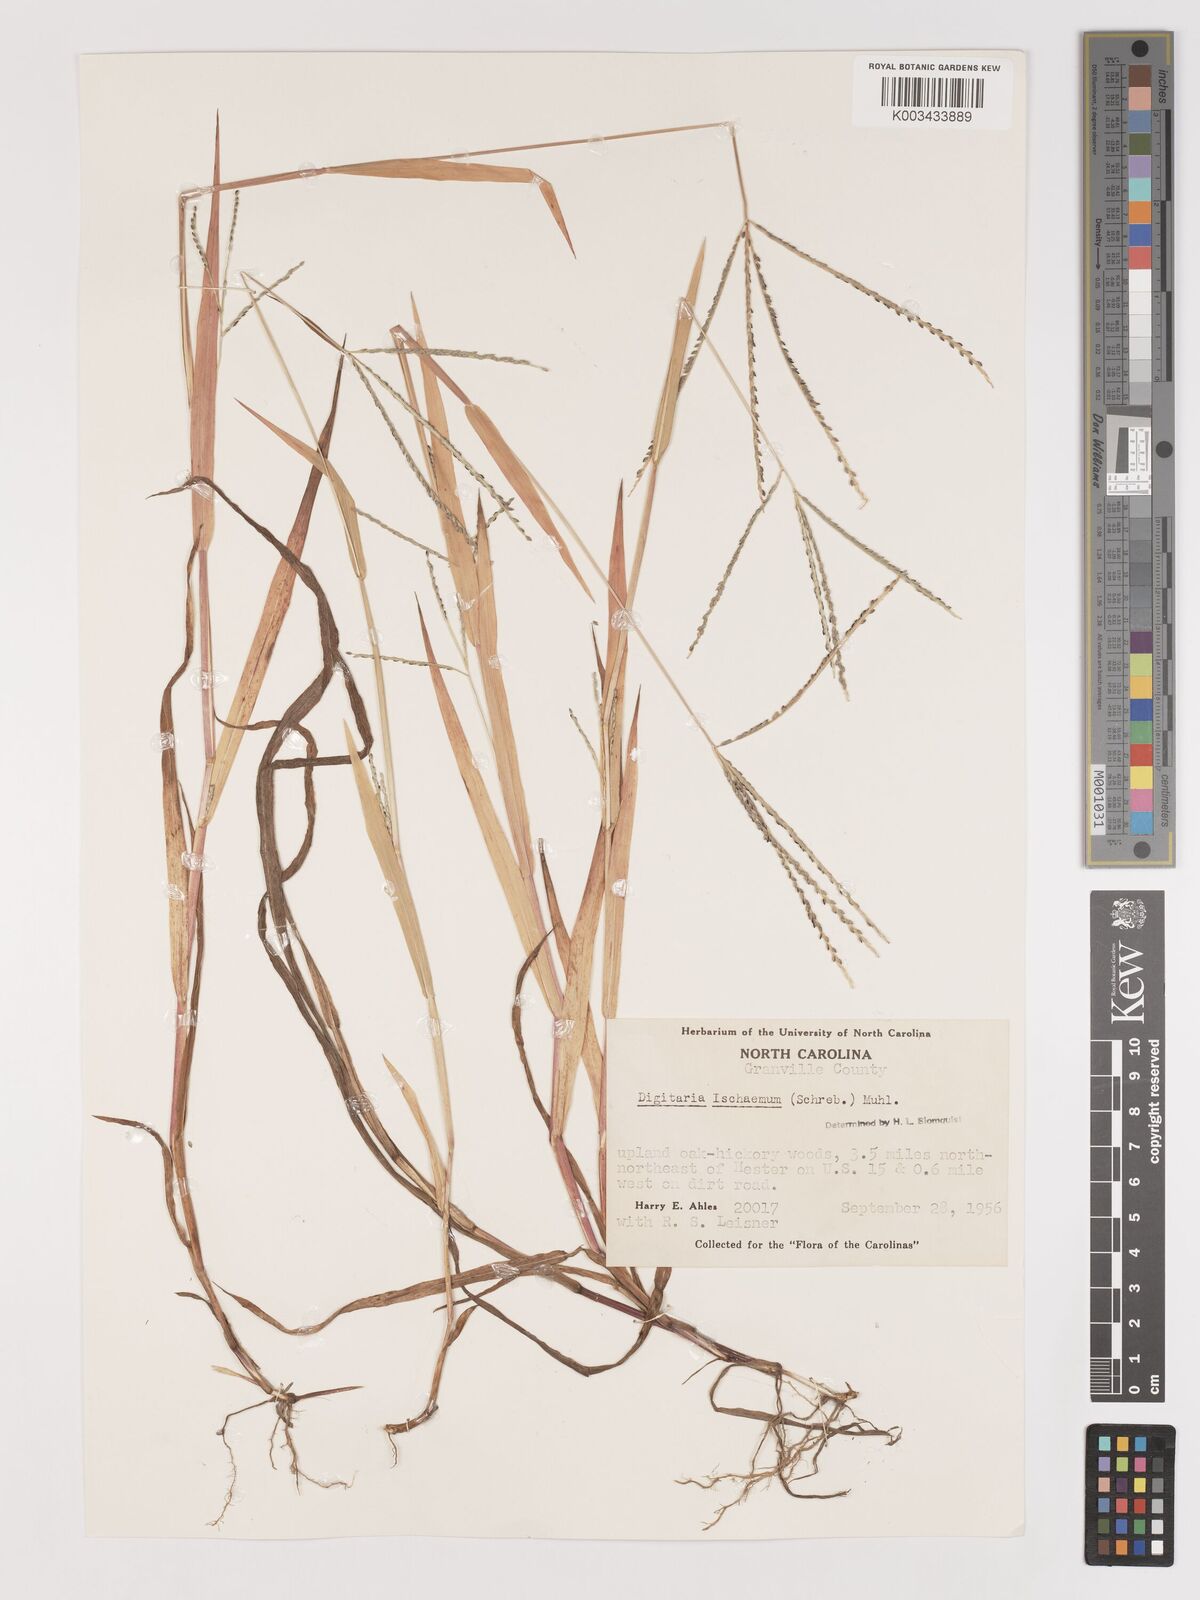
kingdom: Plantae
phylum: Tracheophyta
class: Liliopsida
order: Poales
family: Poaceae
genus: Digitaria
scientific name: Digitaria ischaemum
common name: Smooth crabgrass
